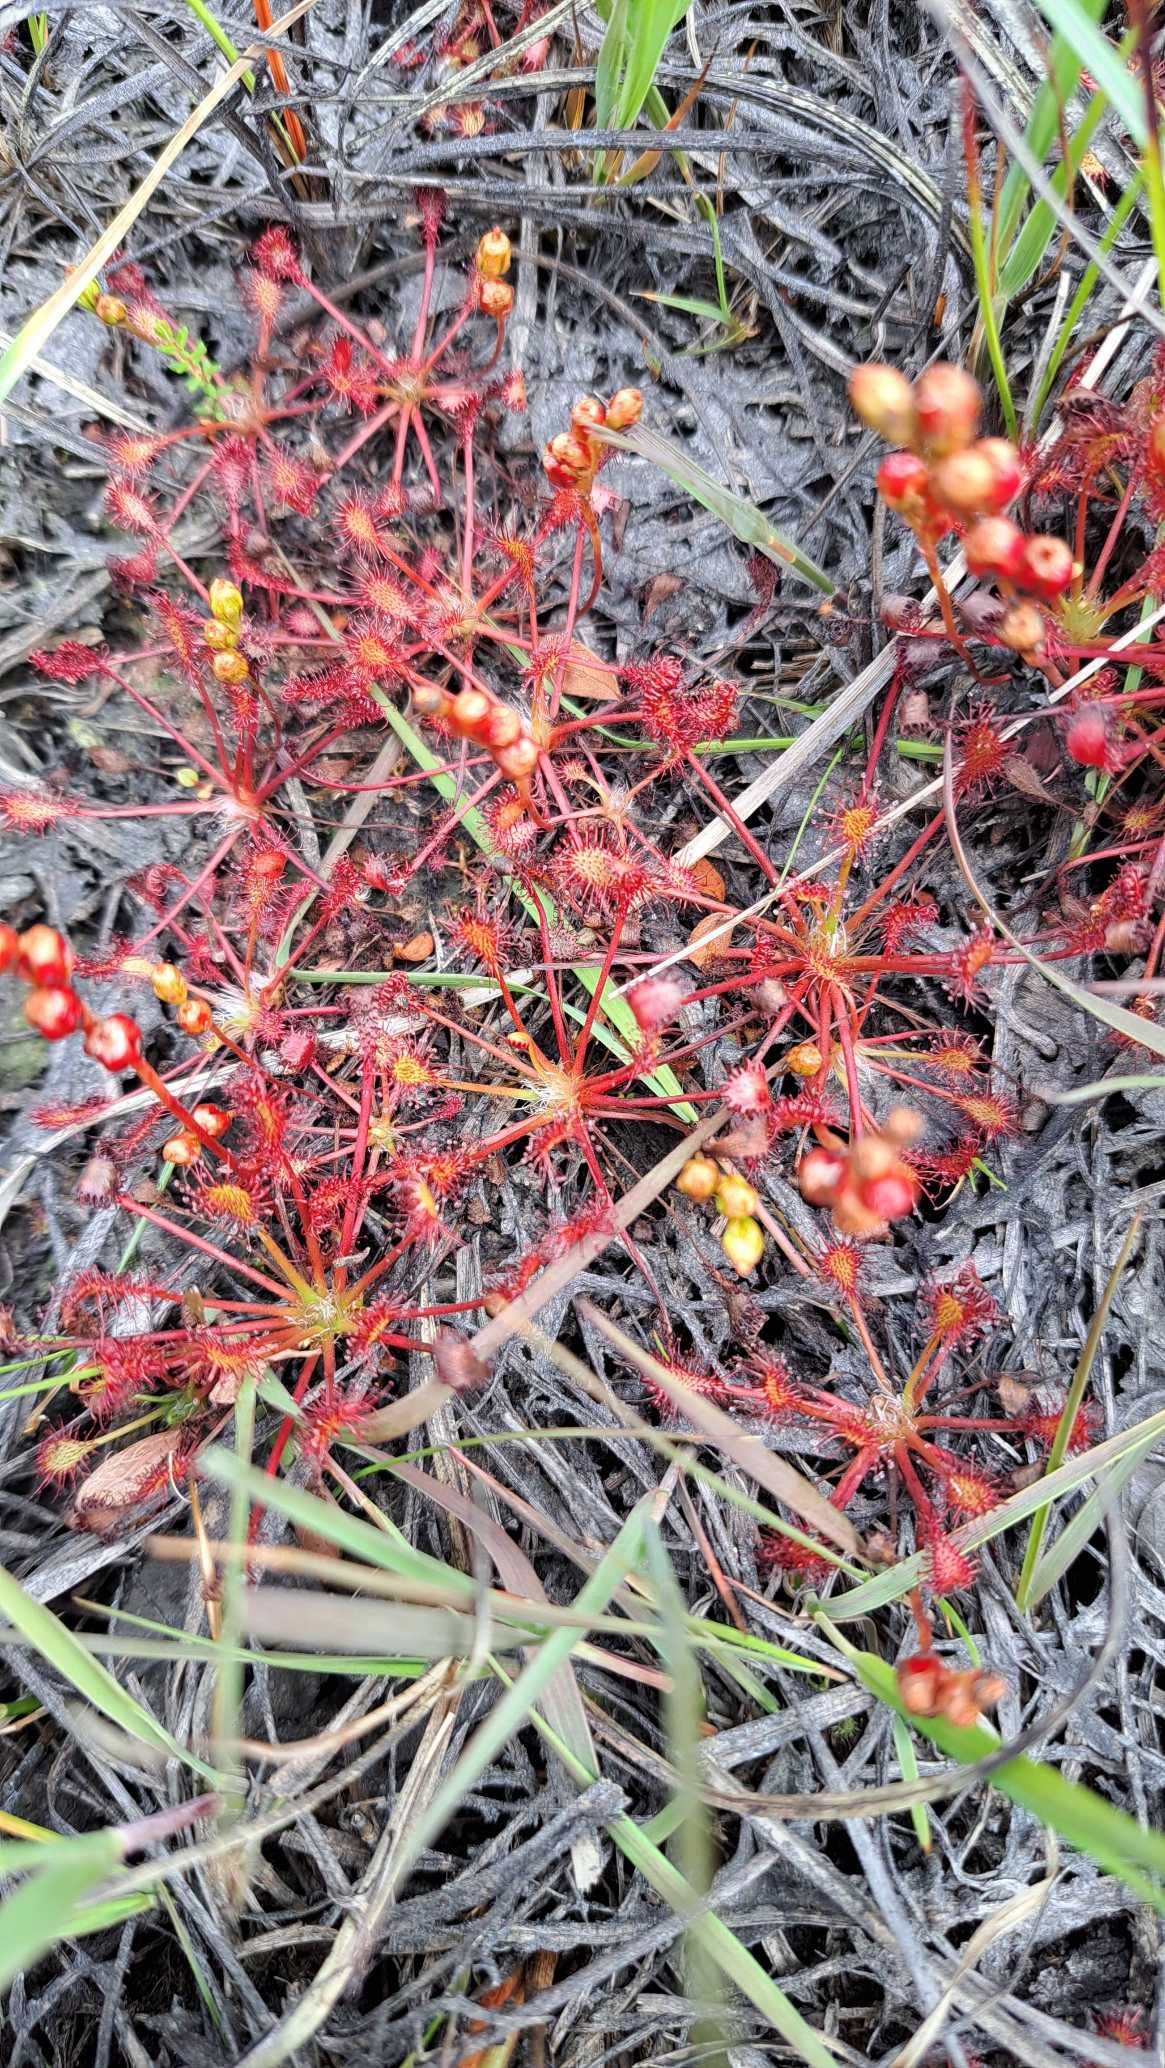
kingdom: Plantae
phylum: Tracheophyta
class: Magnoliopsida
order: Caryophyllales
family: Droseraceae
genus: Drosera
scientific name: Drosera intermedia
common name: Liden soldug
